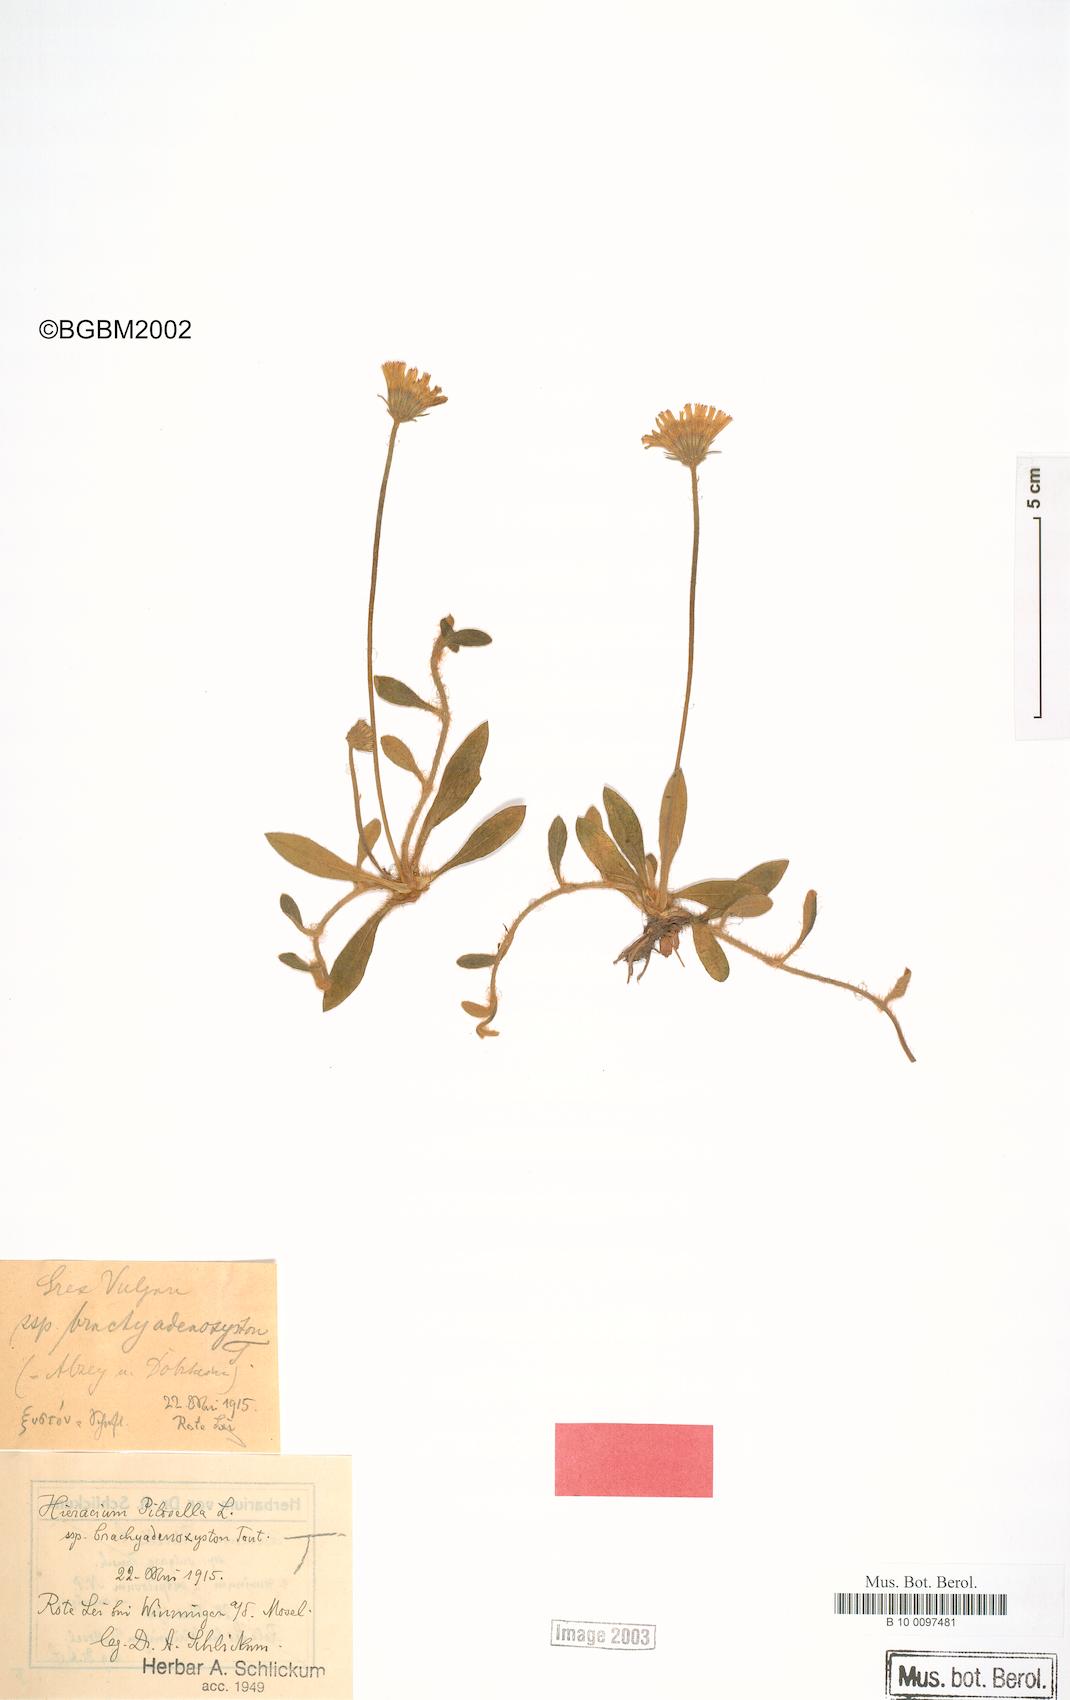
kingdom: Plantae
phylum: Tracheophyta
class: Magnoliopsida
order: Asterales
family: Asteraceae
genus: Pilosella
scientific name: Pilosella officinarum
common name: Mouse-ear hawkweed
